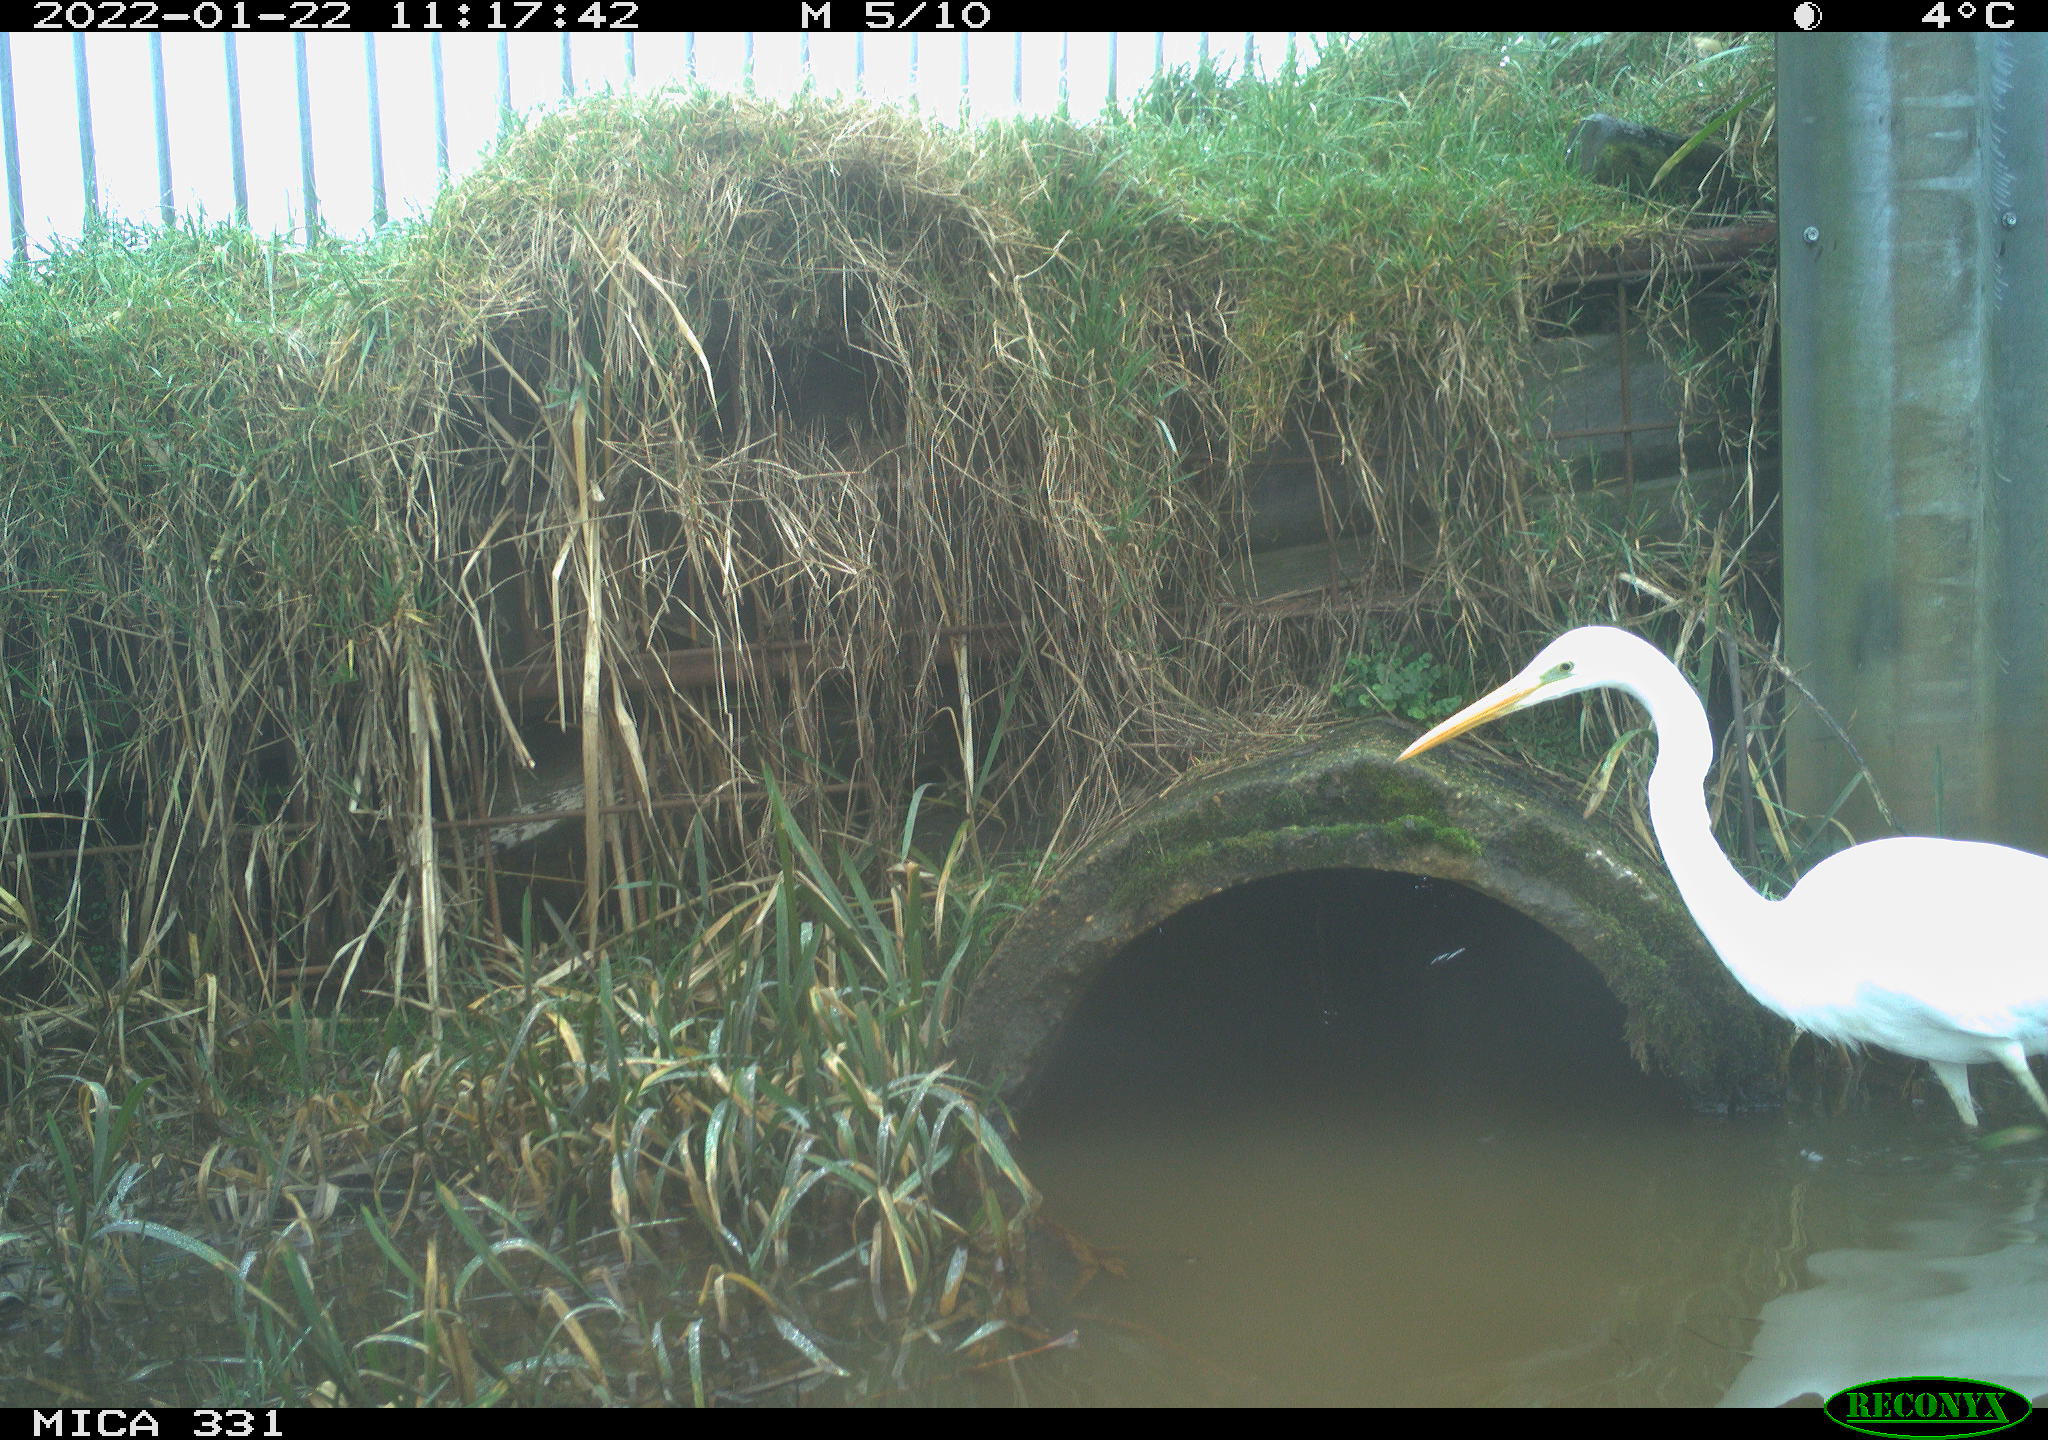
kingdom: Animalia
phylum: Chordata
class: Aves
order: Pelecaniformes
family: Ardeidae
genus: Ardea
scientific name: Ardea alba
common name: Great egret
